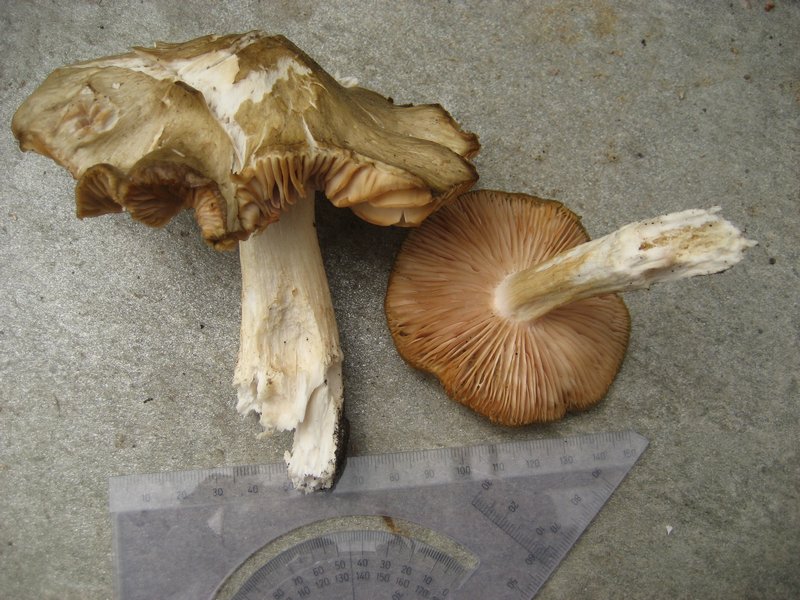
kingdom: Fungi
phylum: Basidiomycota
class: Agaricomycetes
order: Agaricales
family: Entolomataceae
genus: Entoloma
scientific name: Entoloma clypeatum
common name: flammet rødblad
